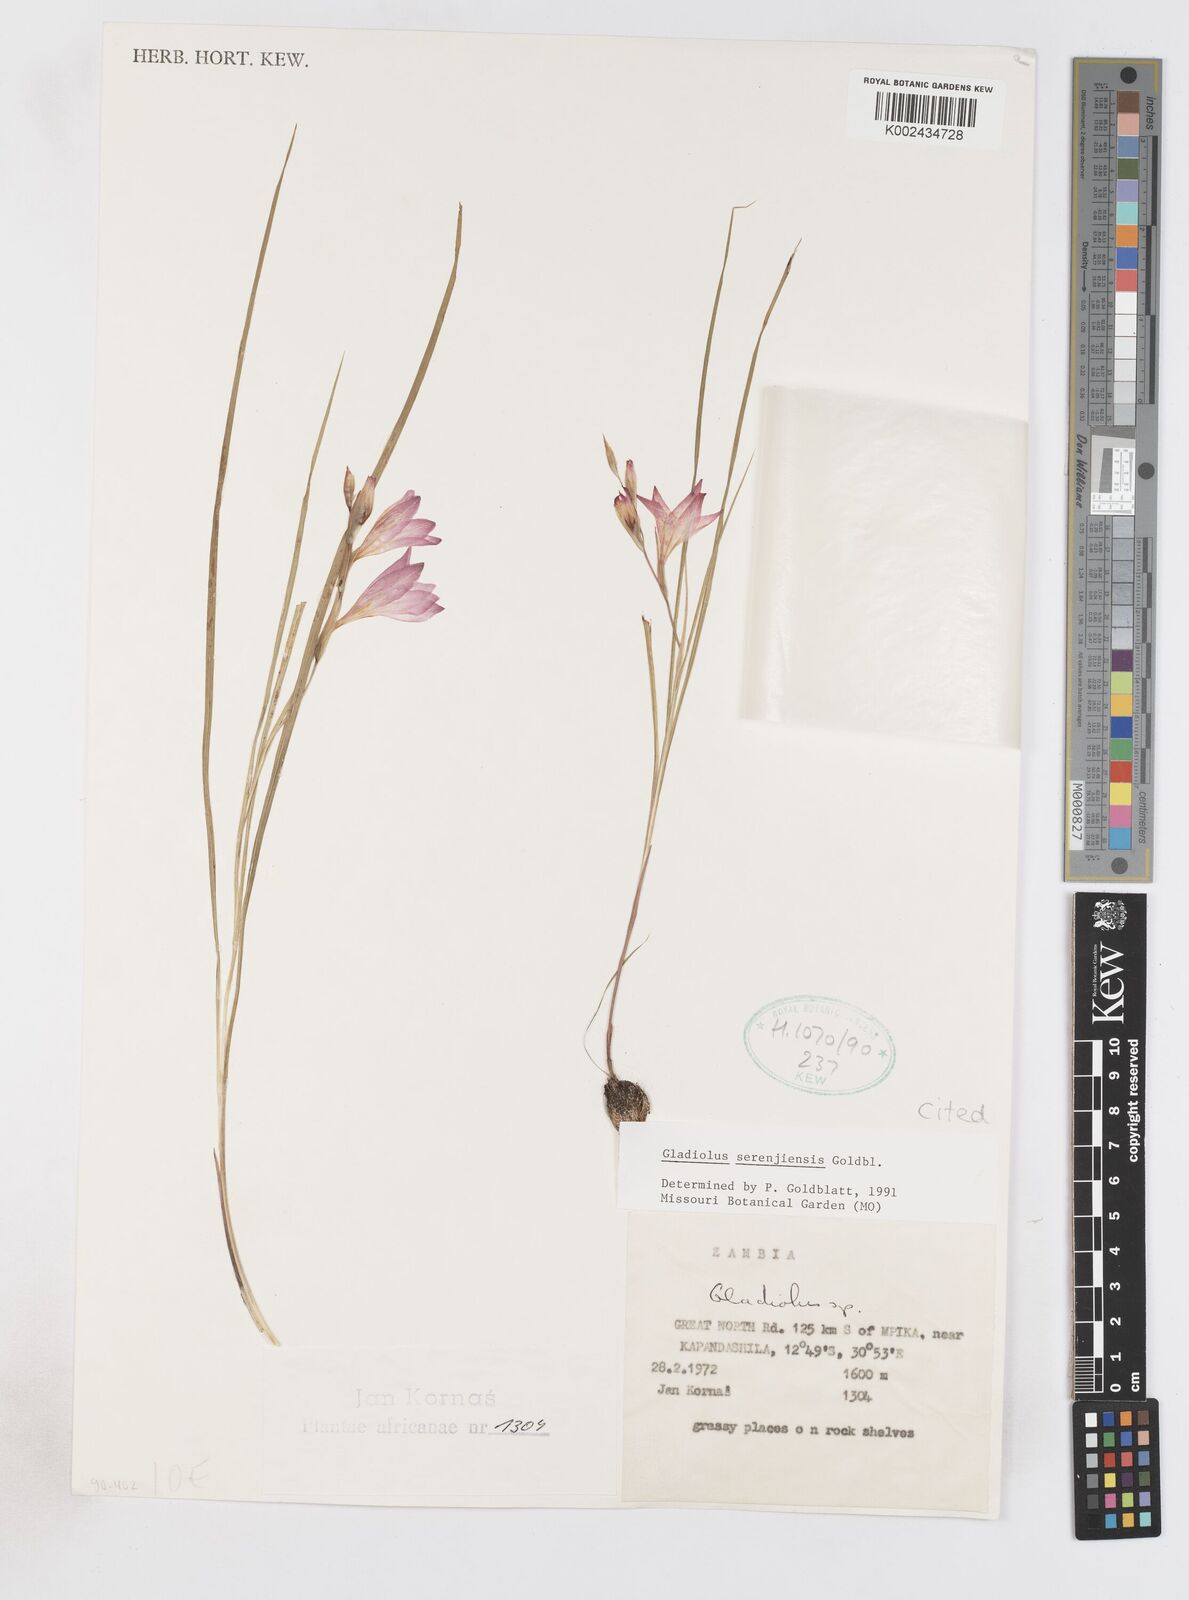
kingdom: Plantae
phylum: Tracheophyta
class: Liliopsida
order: Asparagales
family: Iridaceae
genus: Gladiolus
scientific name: Gladiolus serenjensis
